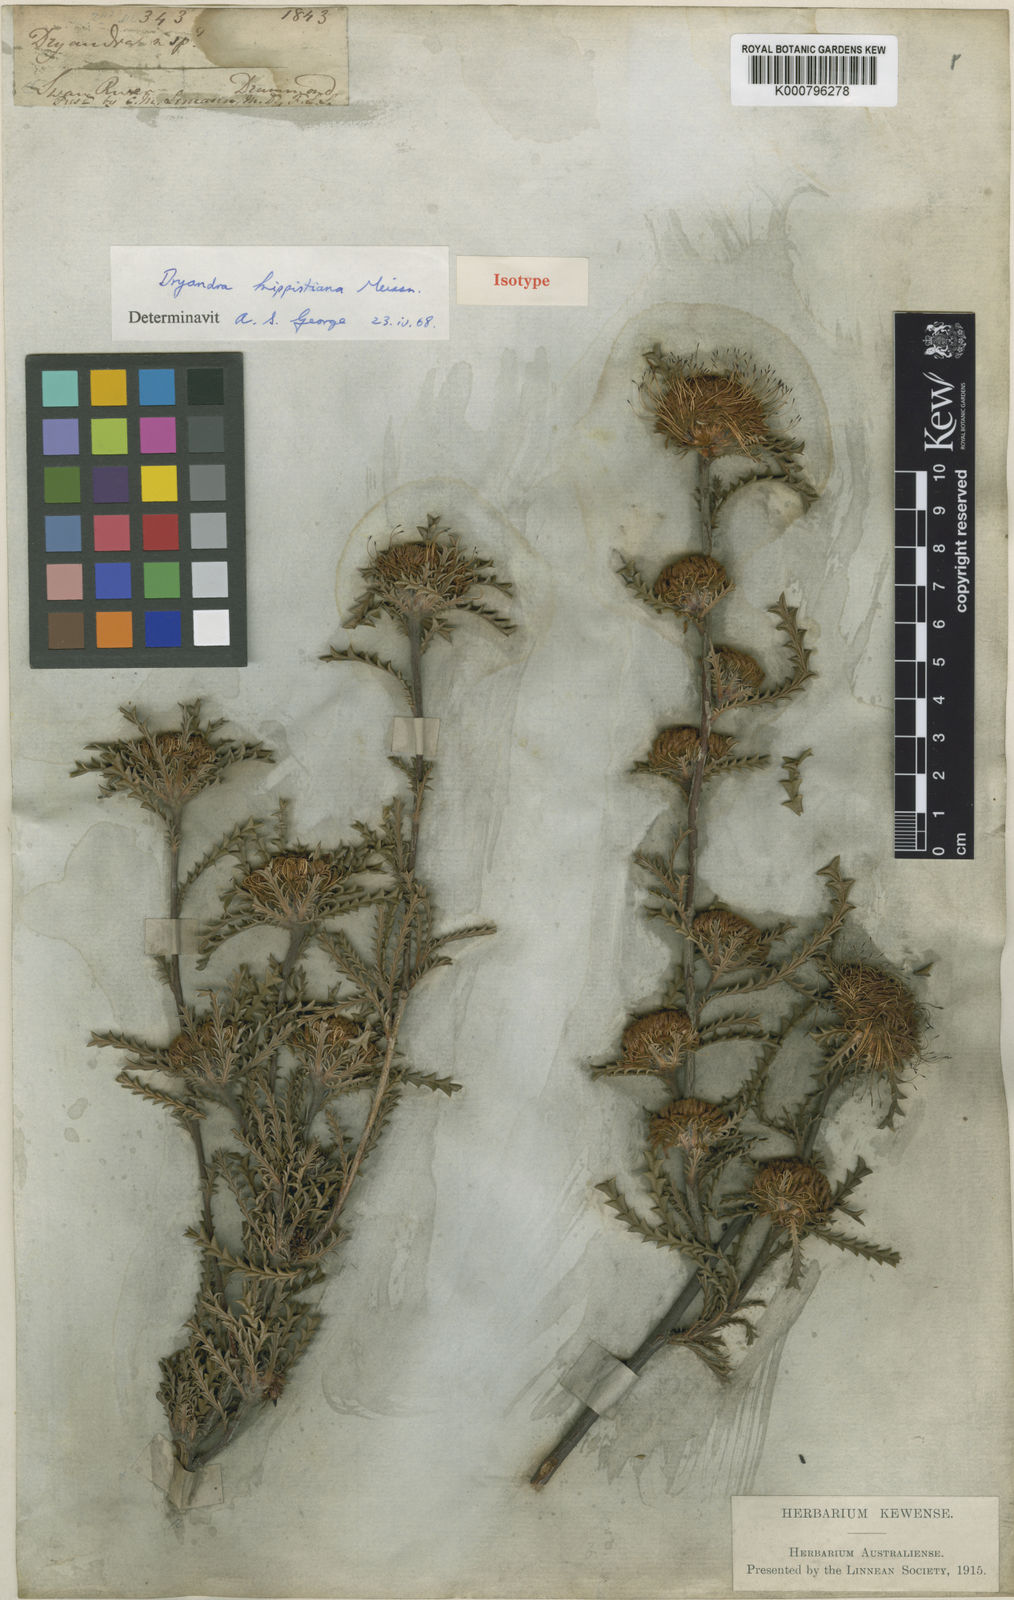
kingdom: Plantae
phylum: Tracheophyta
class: Magnoliopsida
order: Proteales
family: Proteaceae
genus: Banksia
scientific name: Banksia kippistiana
